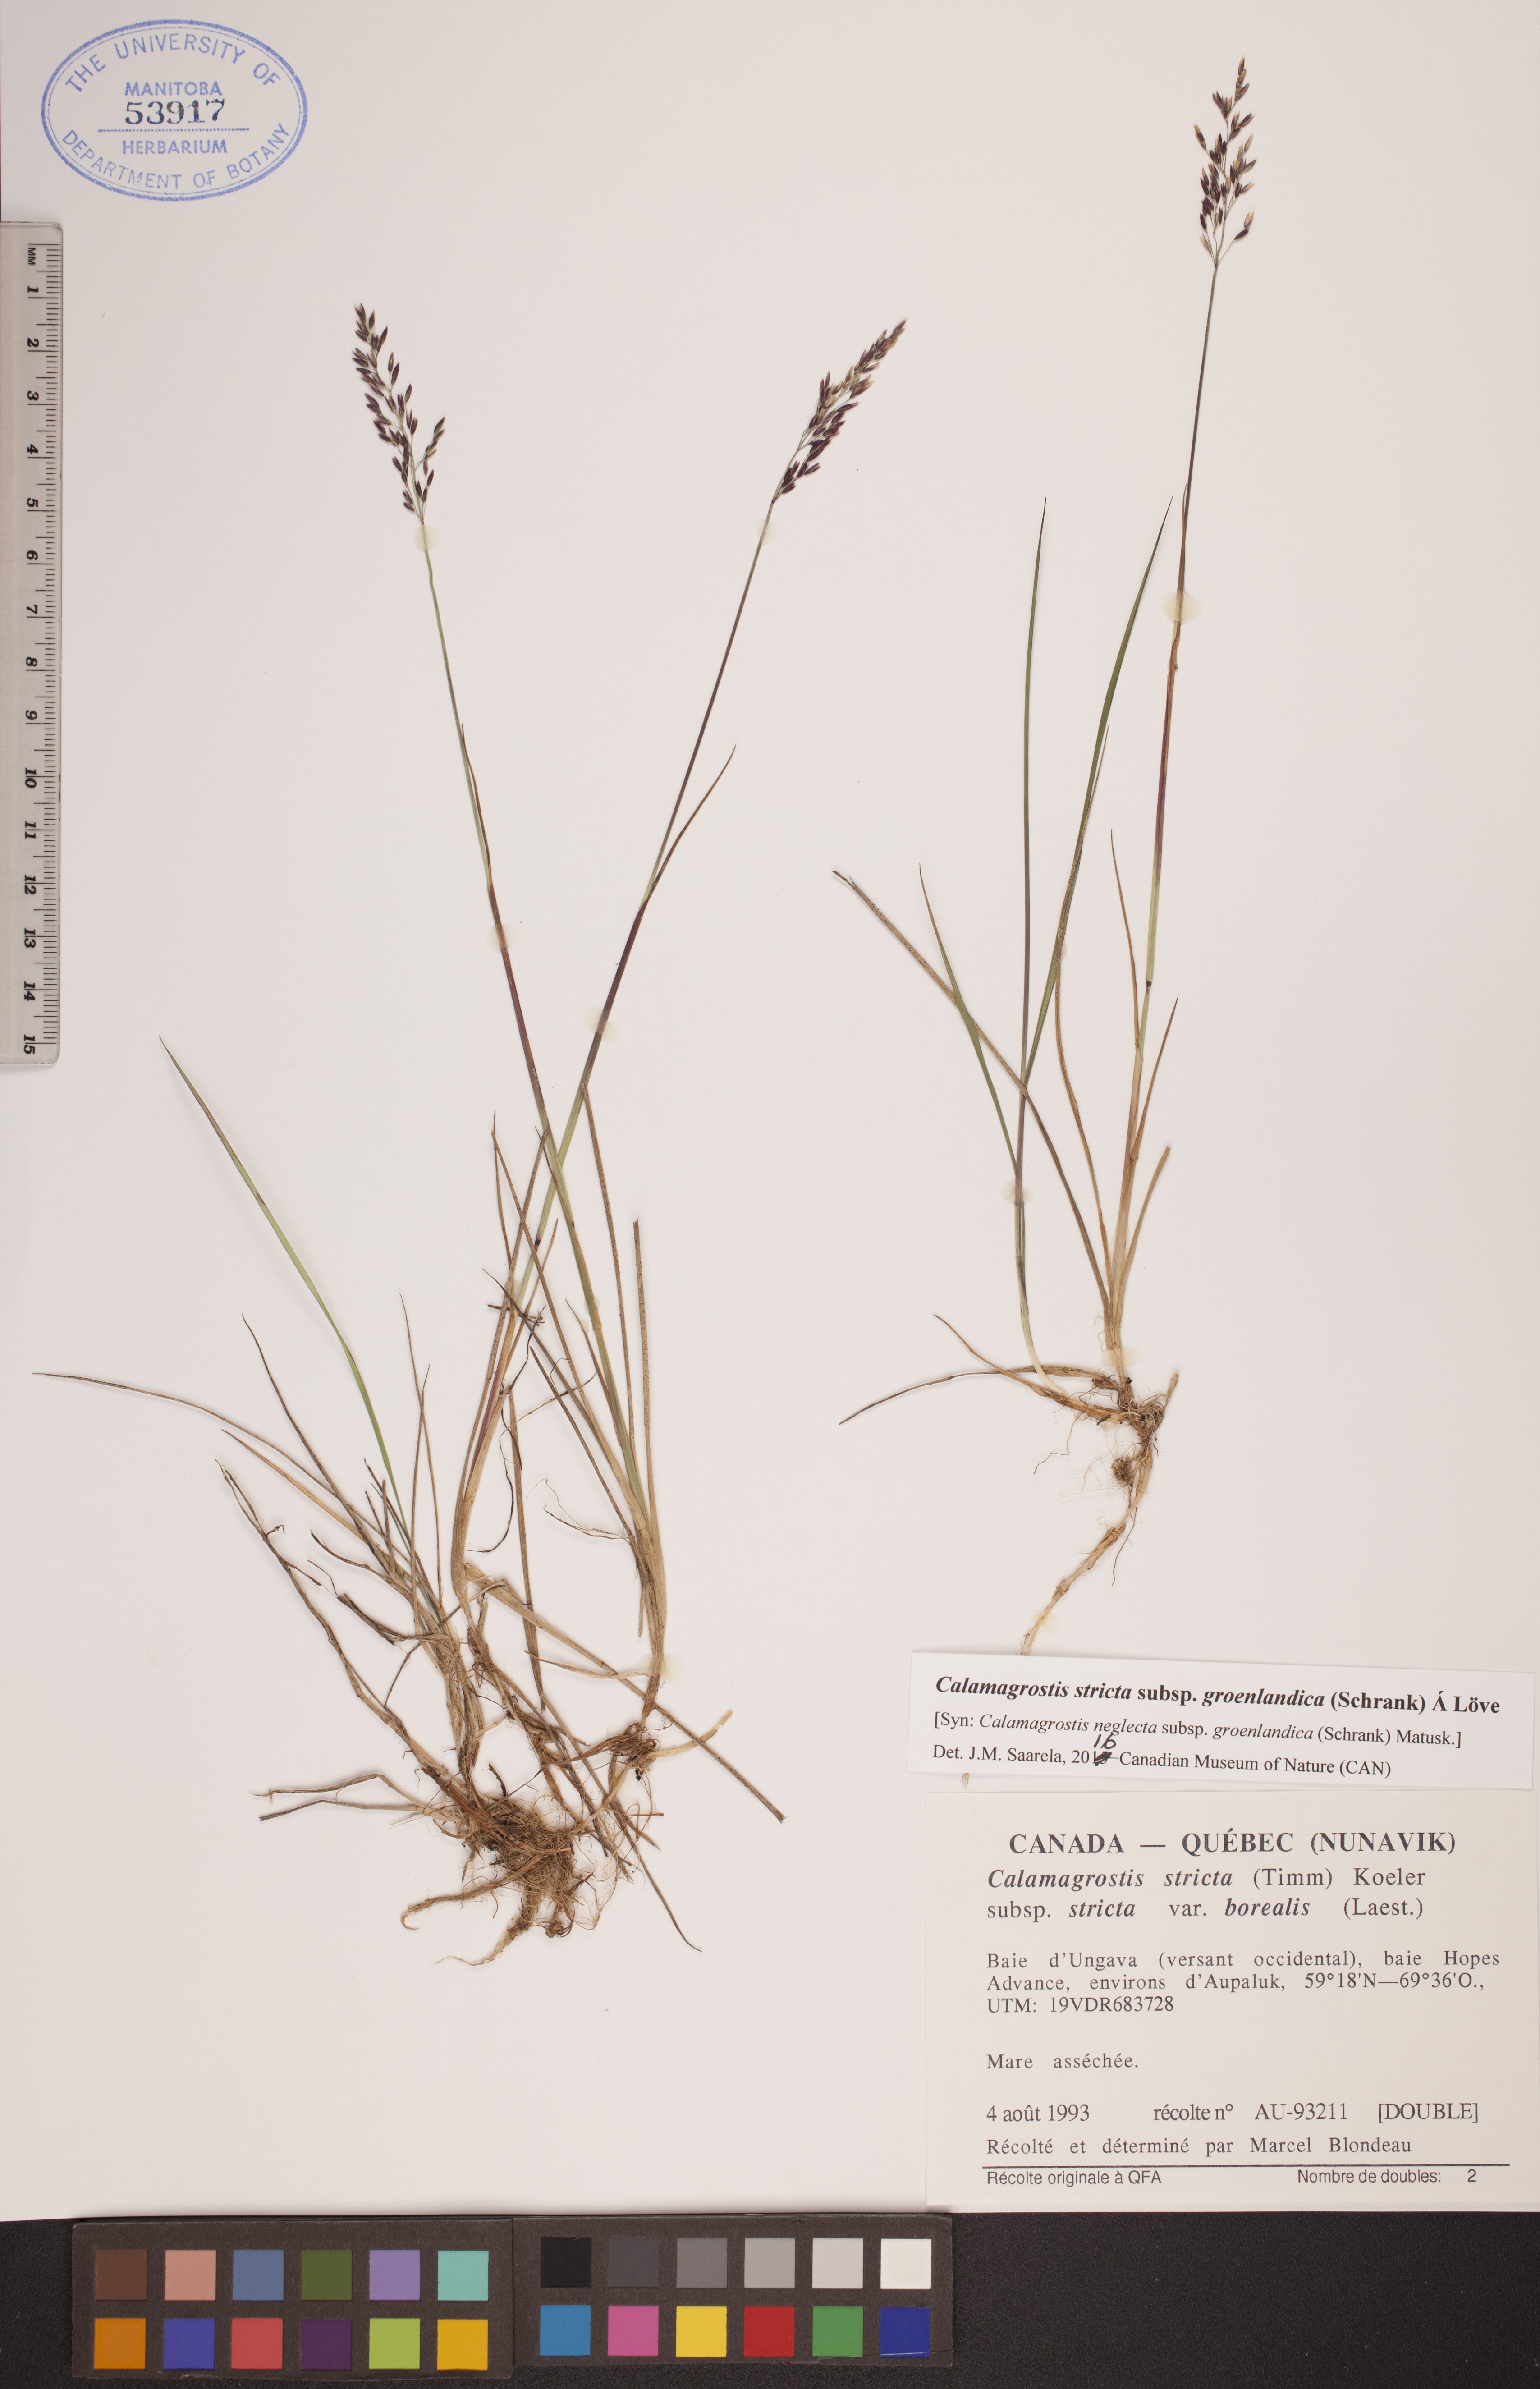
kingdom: Plantae
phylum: Tracheophyta
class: Liliopsida
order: Poales
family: Poaceae
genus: Calamagrostis
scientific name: Calamagrostis stricta
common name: Narrow small-reed
